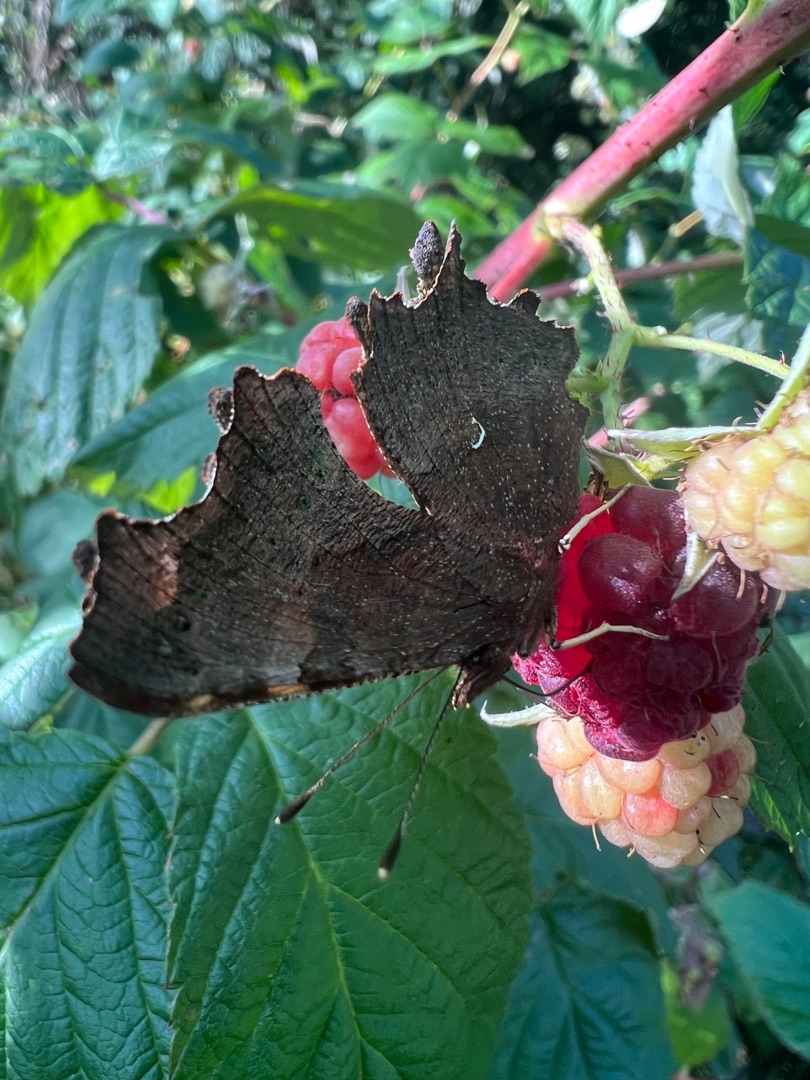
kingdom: Animalia
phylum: Arthropoda
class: Insecta
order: Lepidoptera
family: Nymphalidae
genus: Polygonia
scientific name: Polygonia c-album
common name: Det hvide C
